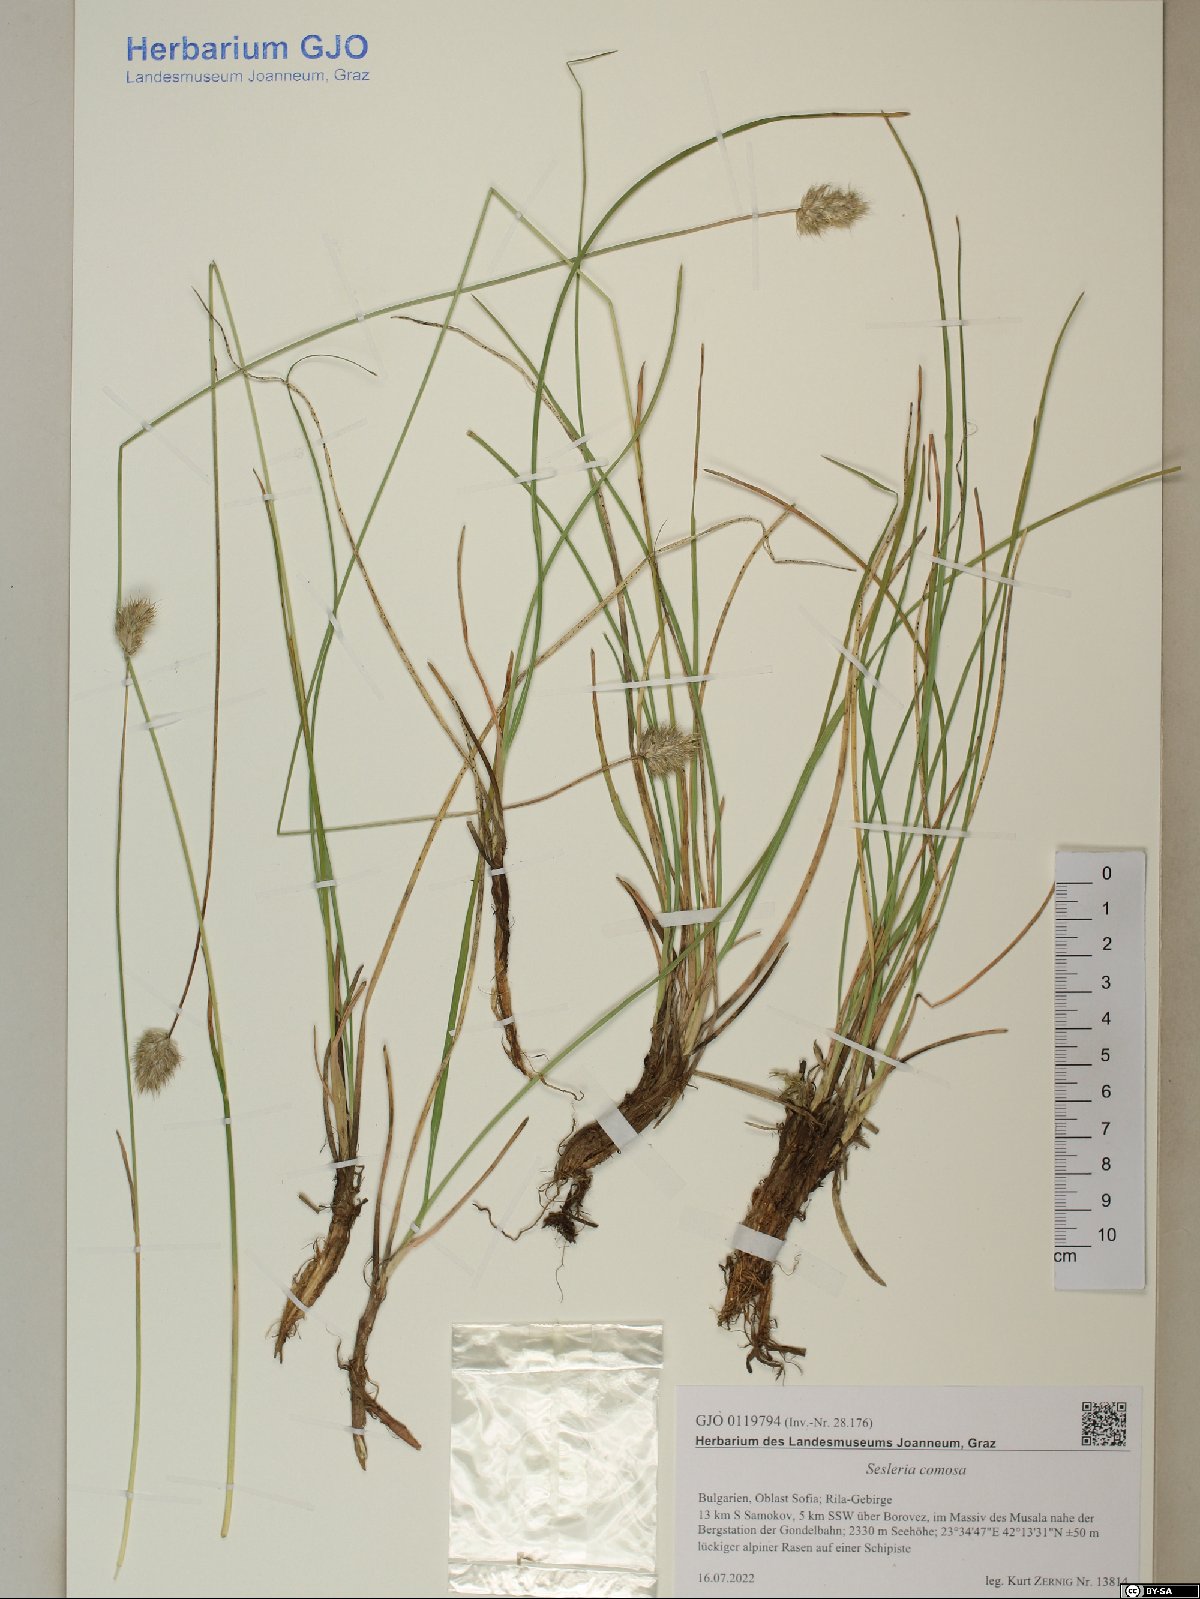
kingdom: Plantae
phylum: Tracheophyta
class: Liliopsida
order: Poales
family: Poaceae
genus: Sesleria
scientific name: Sesleria comosa
